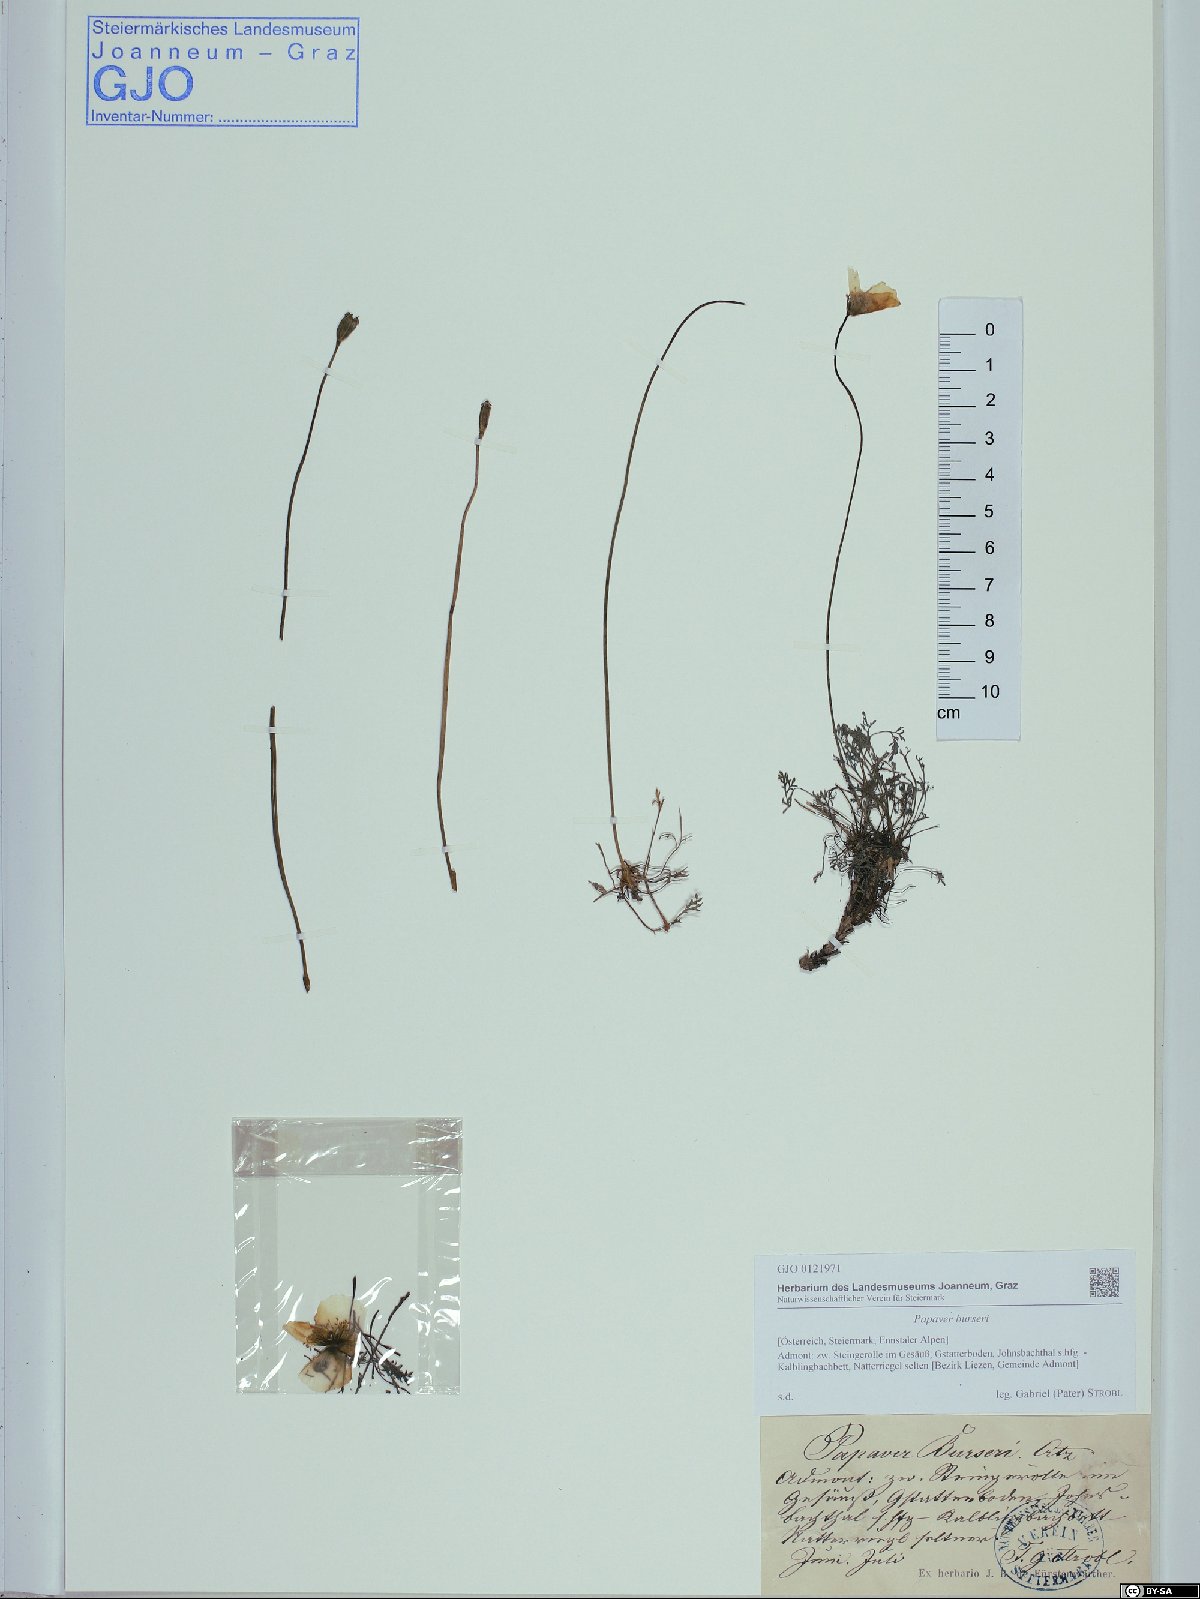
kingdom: Plantae
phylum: Tracheophyta
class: Magnoliopsida
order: Ranunculales
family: Papaveraceae
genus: Papaver
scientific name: Papaver alpinum
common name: Austrian poppy
